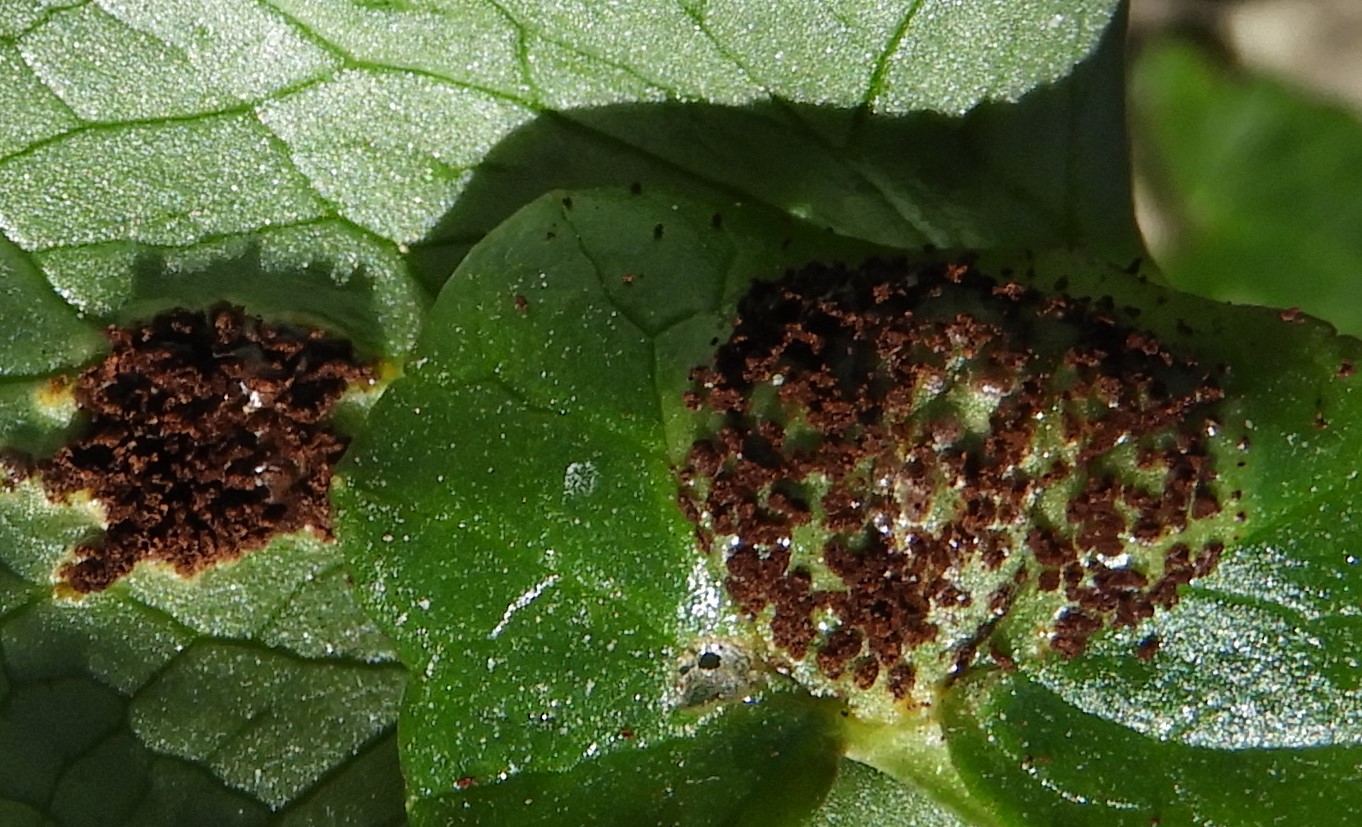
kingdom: Fungi
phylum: Basidiomycota
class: Pucciniomycetes
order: Pucciniales
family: Pucciniaceae
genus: Uromyces
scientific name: Uromyces ficariae
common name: vorterod-encellerust
